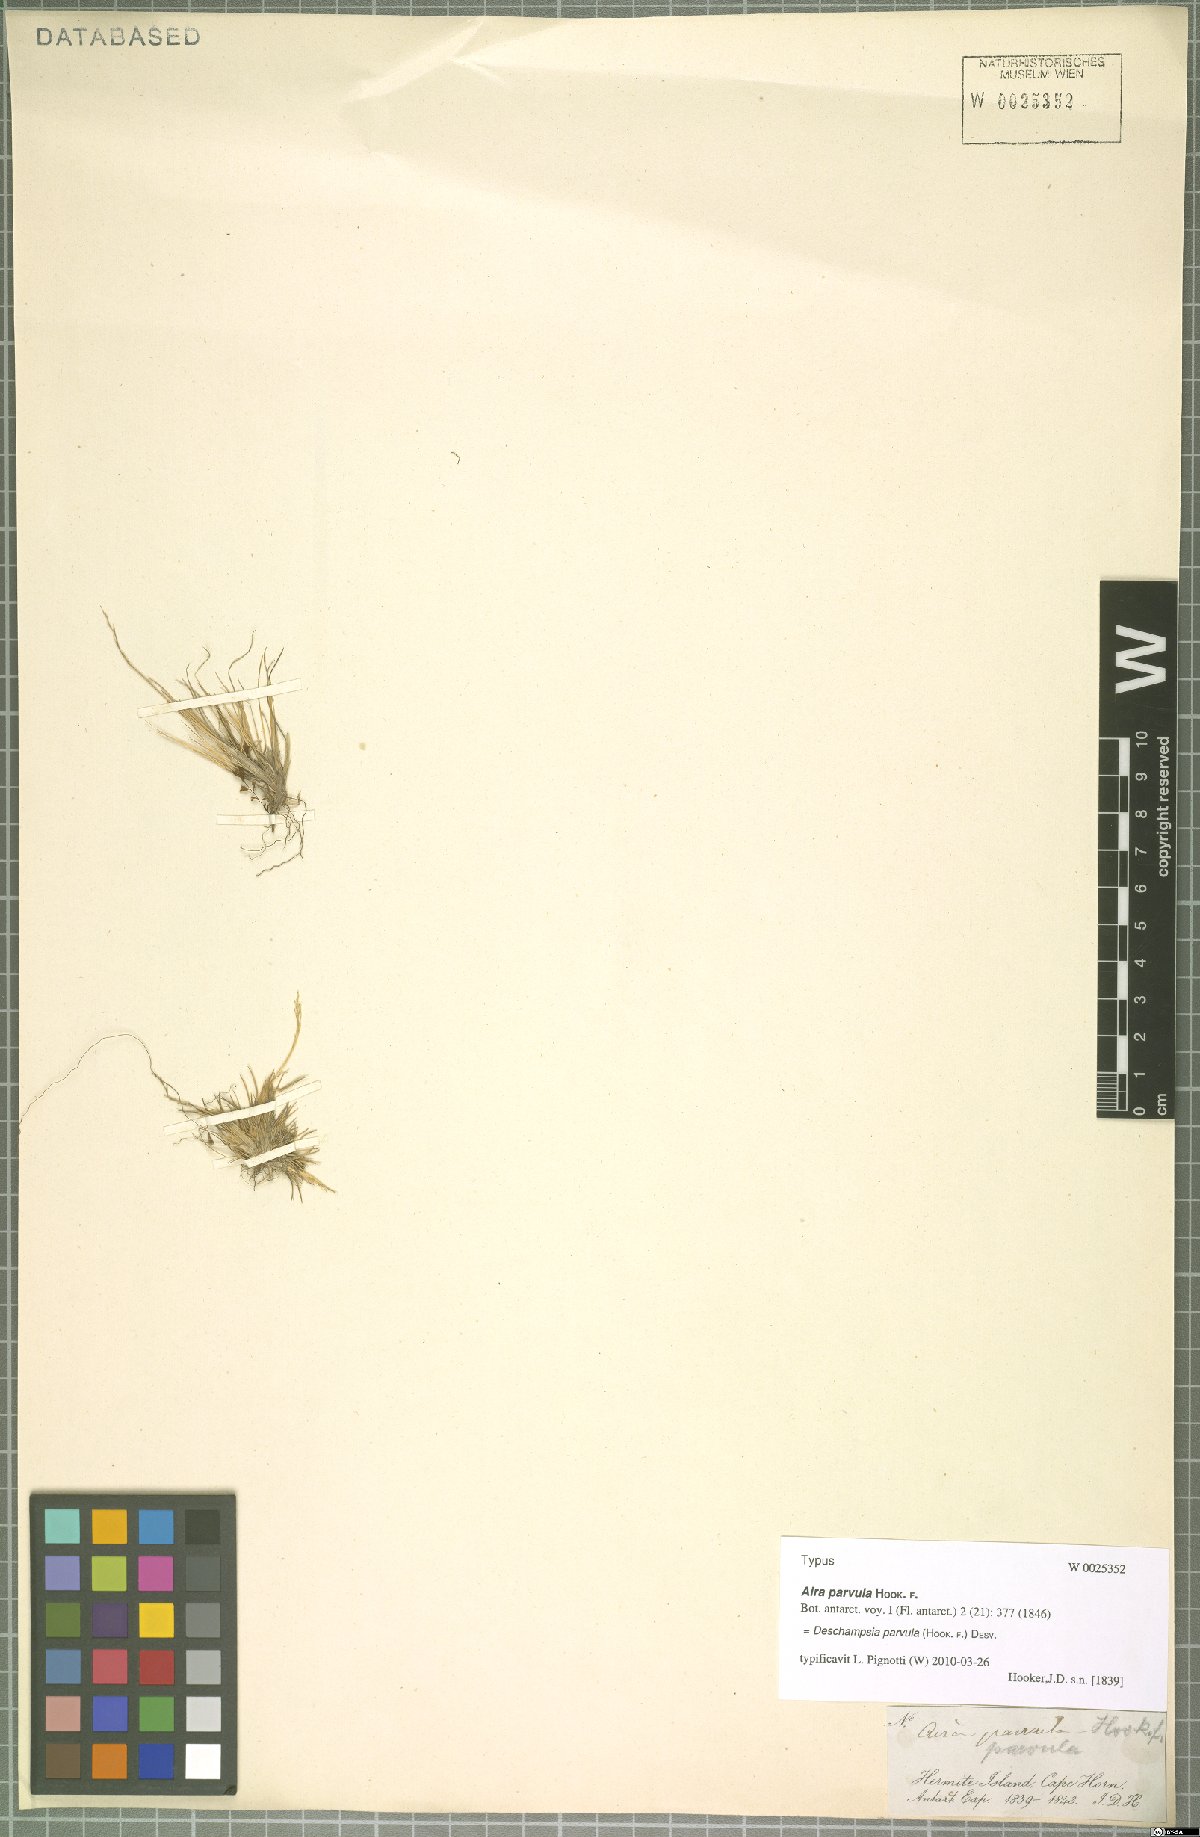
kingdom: Plantae
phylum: Tracheophyta
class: Liliopsida
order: Poales
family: Poaceae
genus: Deschampsia
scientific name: Deschampsia parvula
